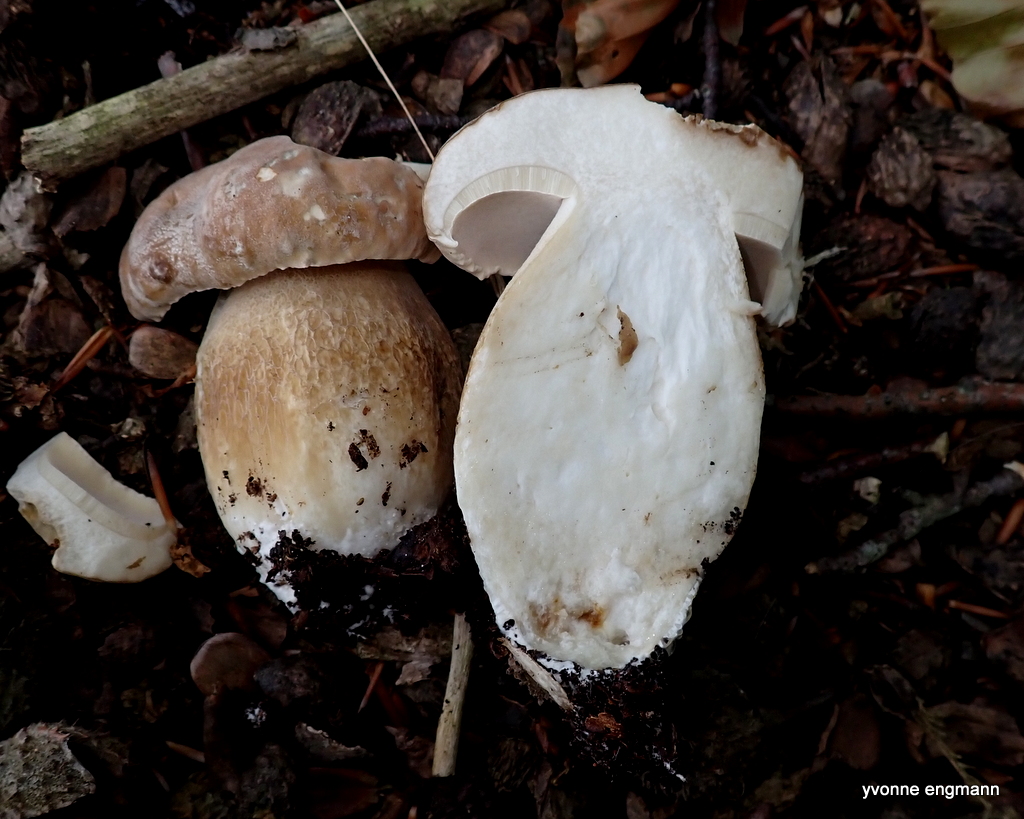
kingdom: Fungi
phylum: Basidiomycota
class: Agaricomycetes
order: Boletales
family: Boletaceae
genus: Boletus
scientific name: Boletus reticulatus
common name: sommer-rørhat
